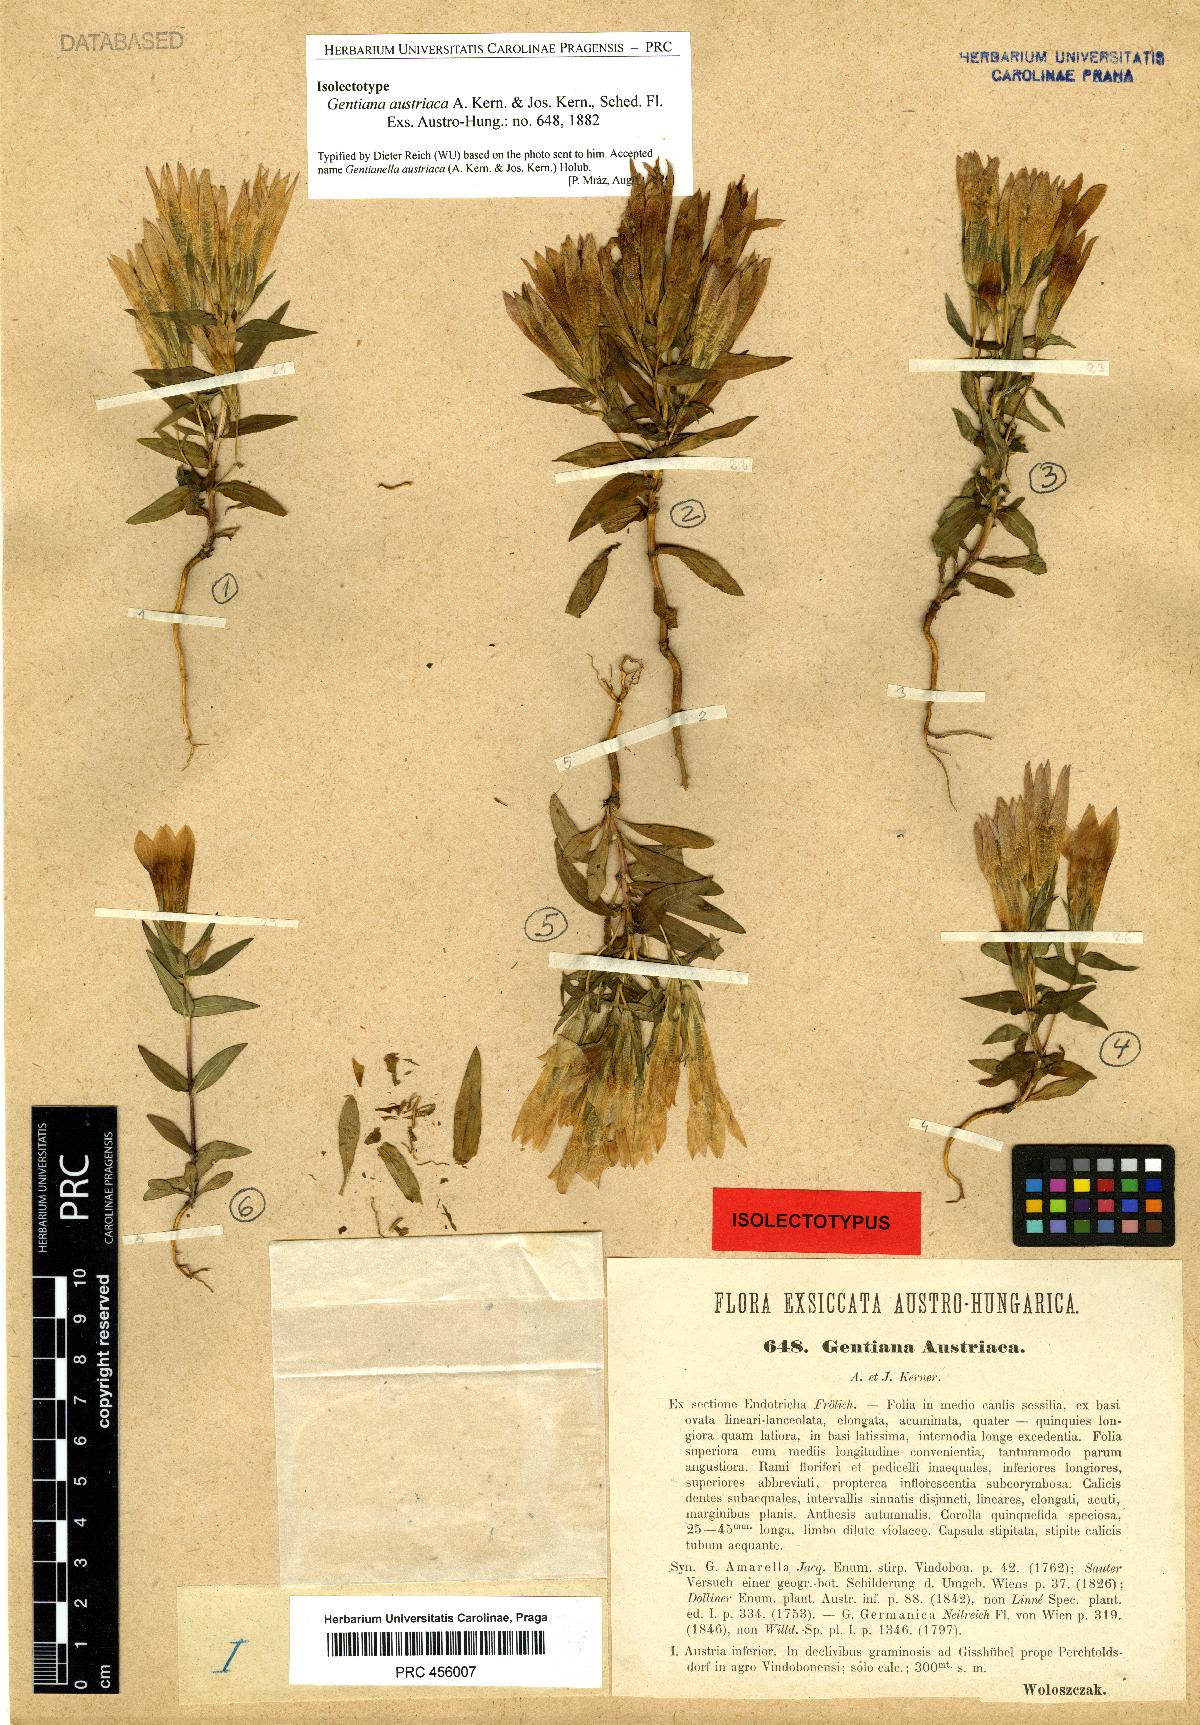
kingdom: Plantae
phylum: Tracheophyta
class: Magnoliopsida
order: Gentianales
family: Gentianaceae
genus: Gentianella
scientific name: Gentianella austriaca
